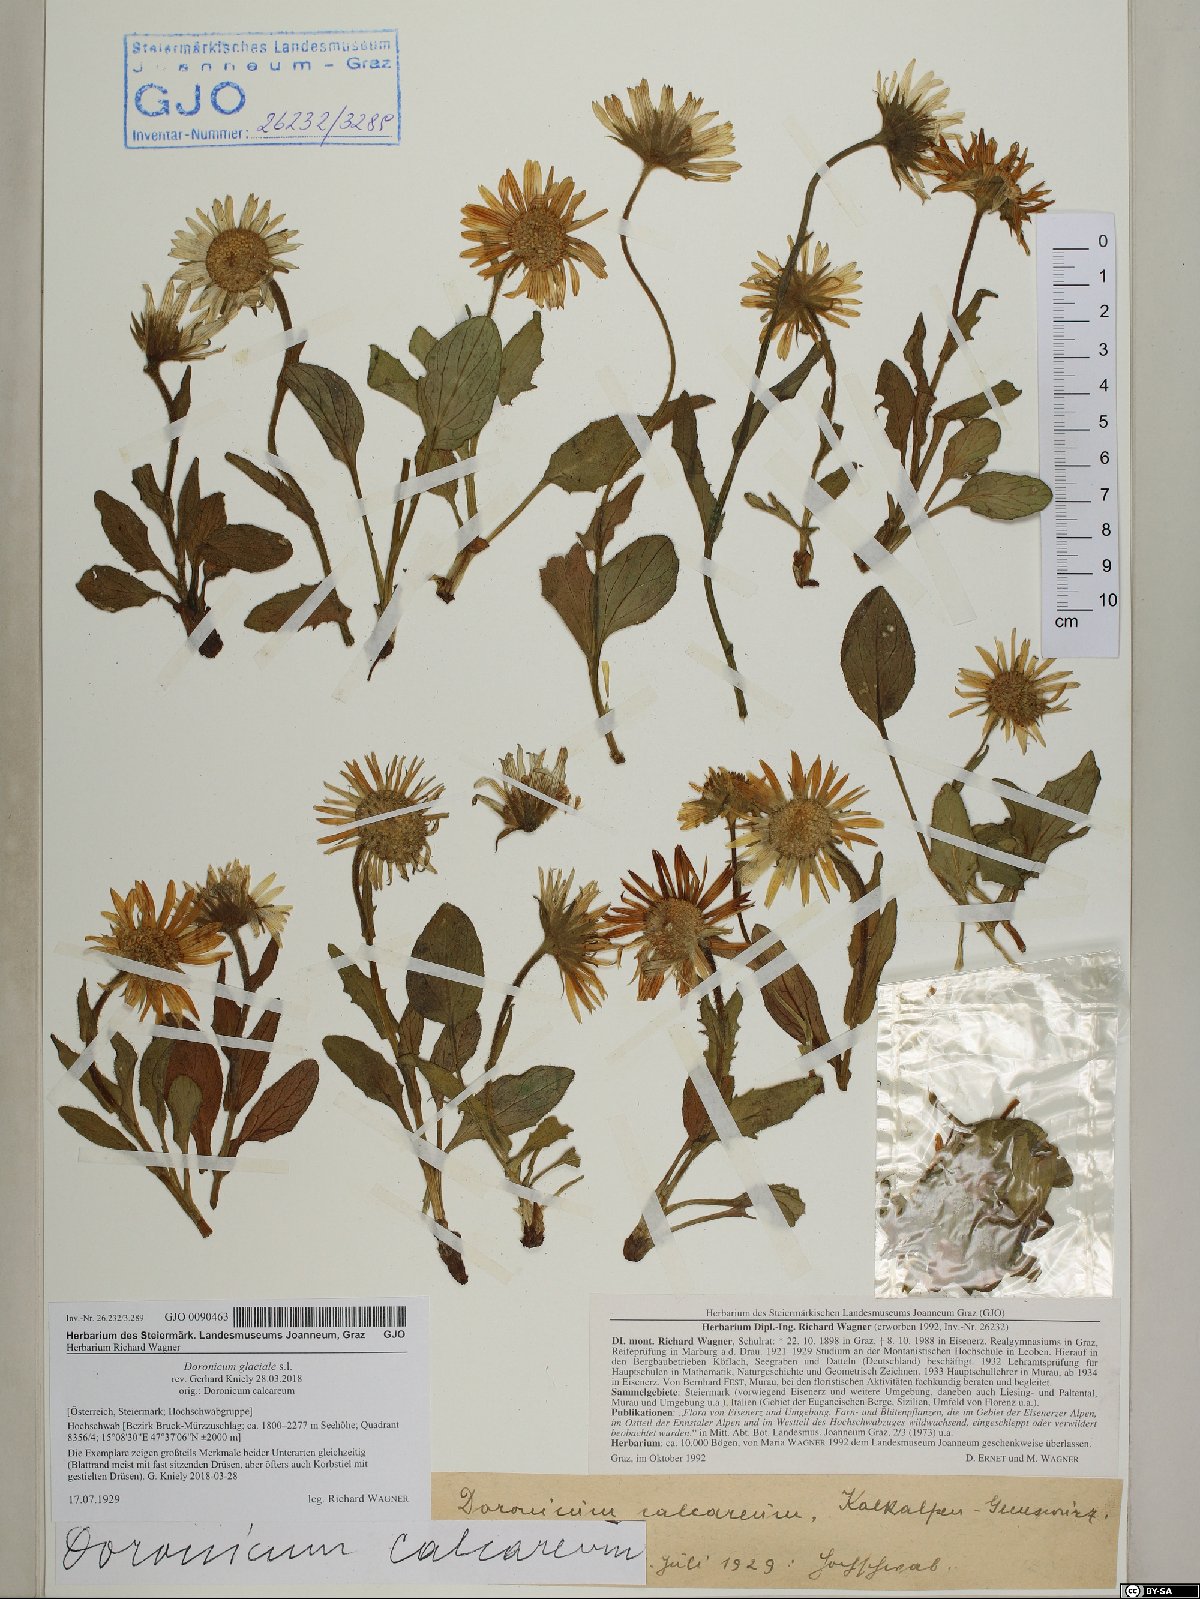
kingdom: Plantae
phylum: Tracheophyta
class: Magnoliopsida
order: Asterales
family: Asteraceae
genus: Doronicum
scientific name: Doronicum glaciale
